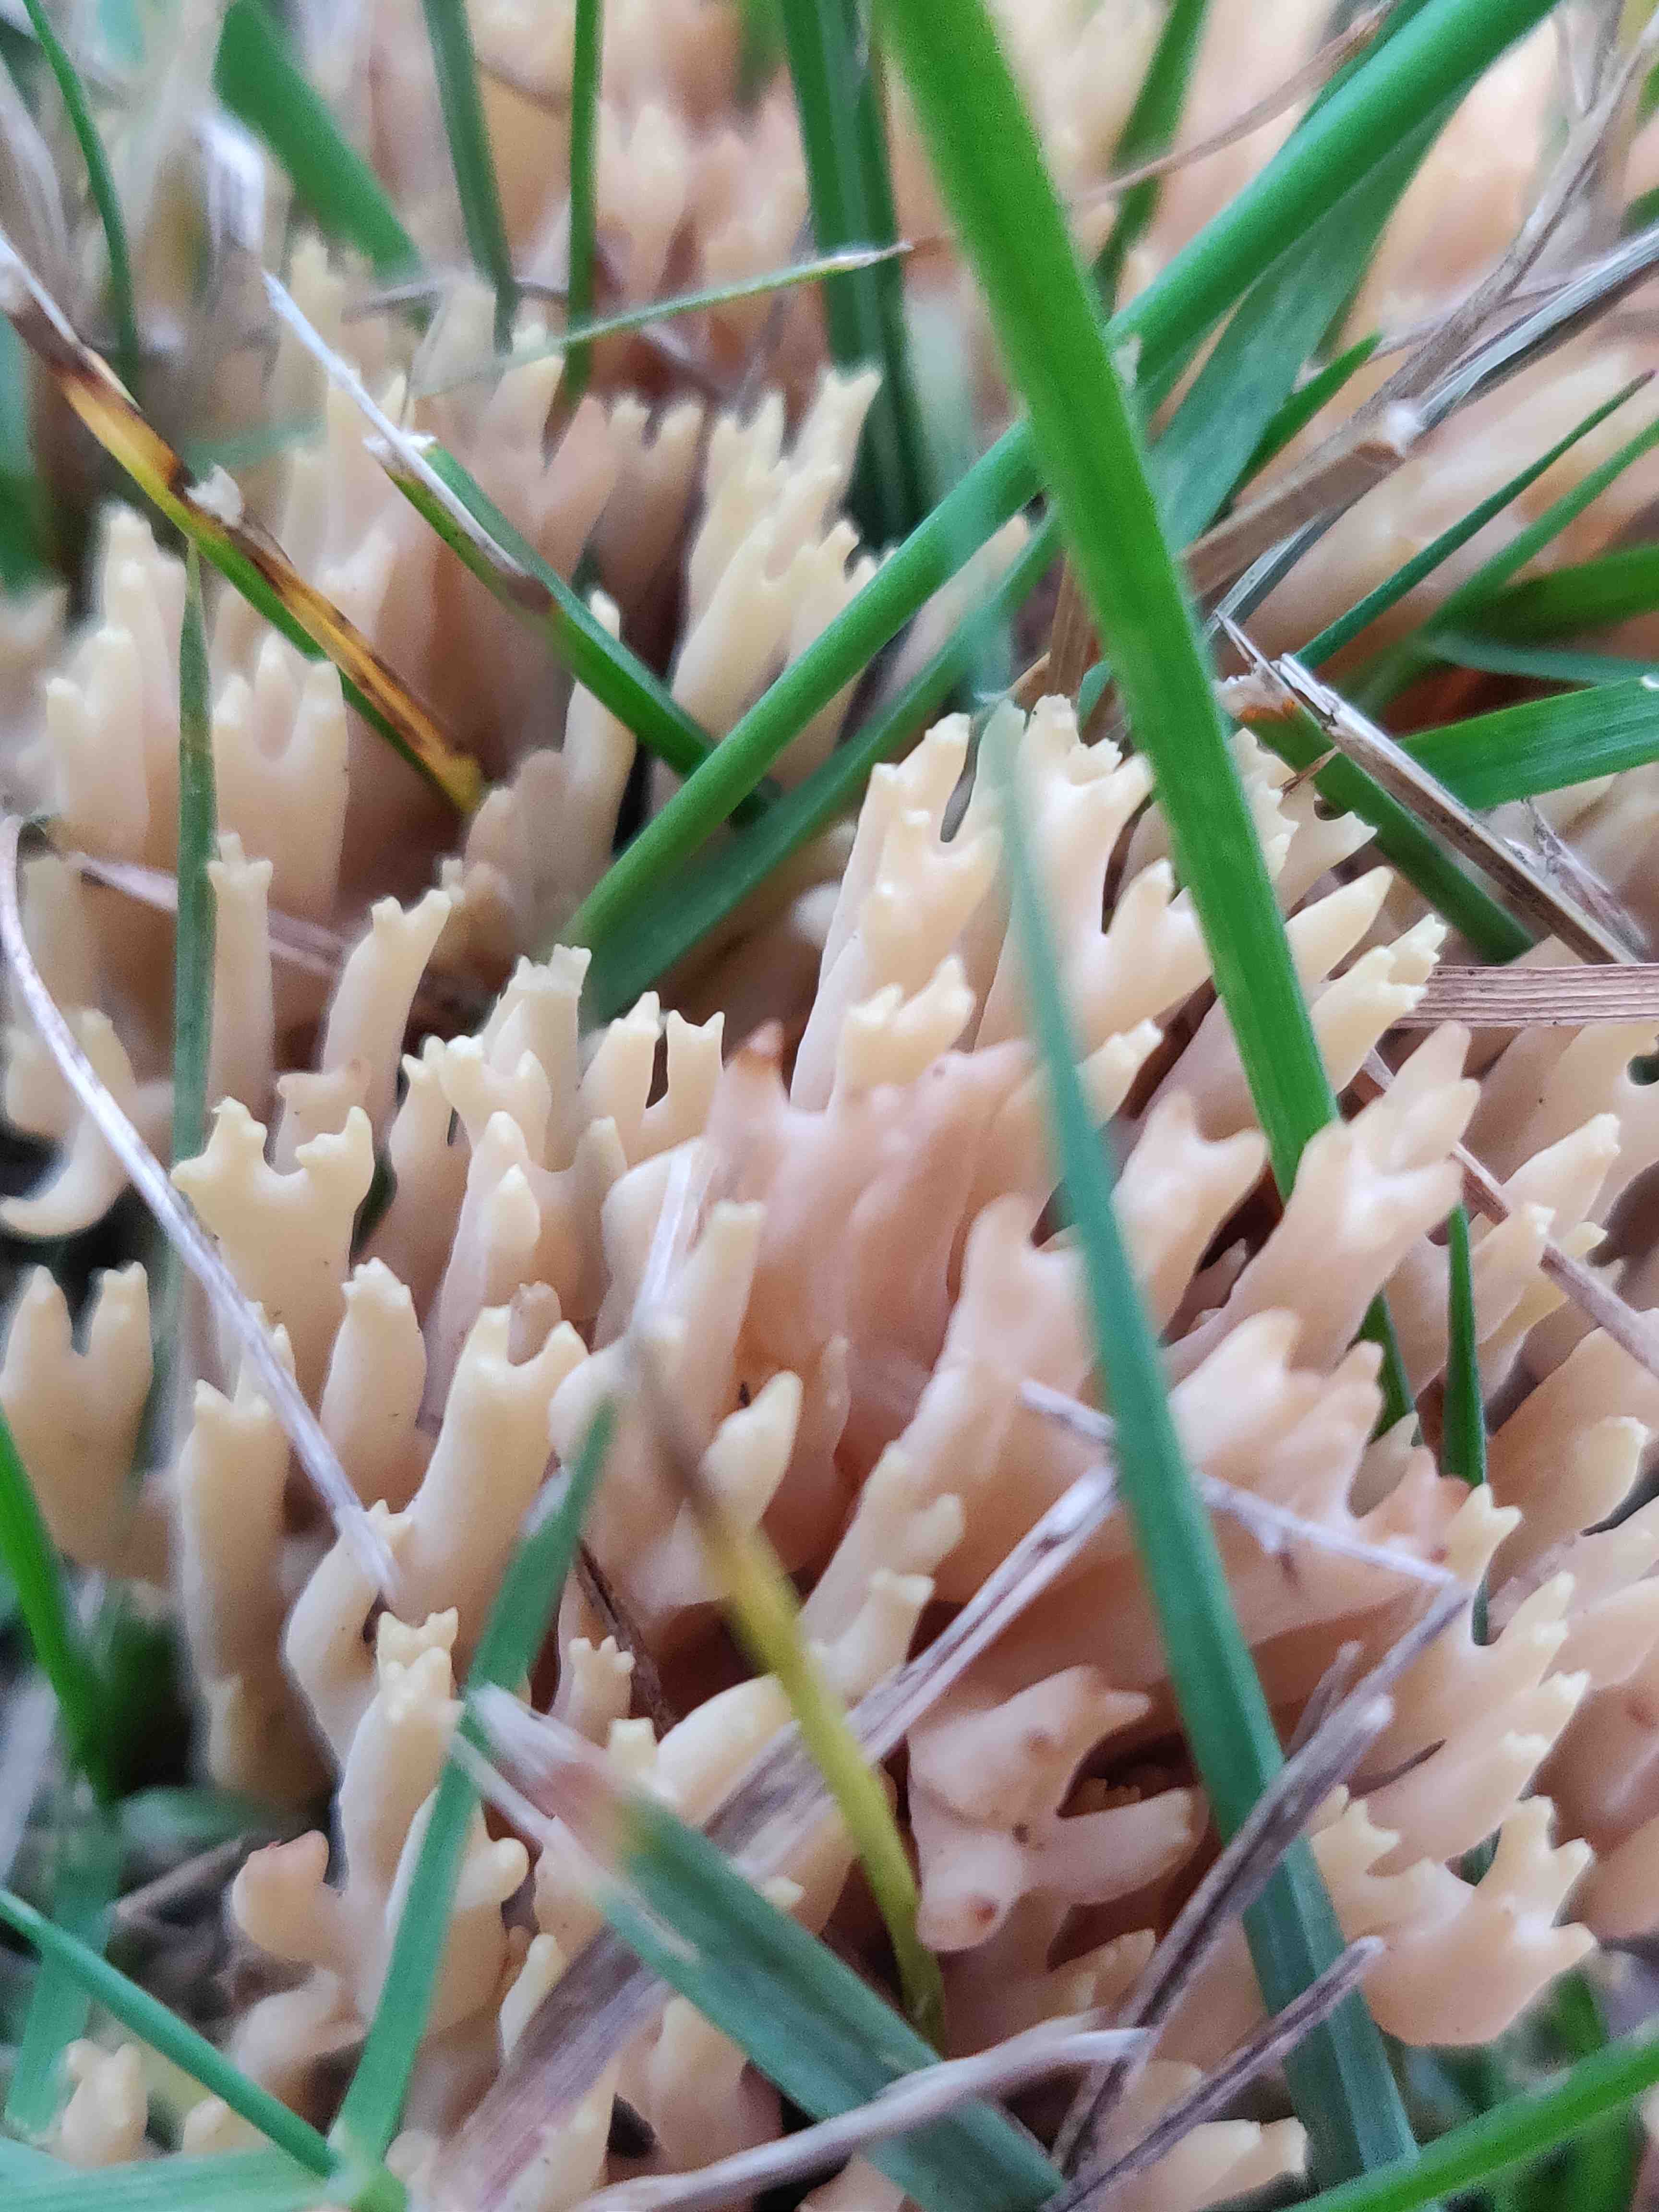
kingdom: Fungi
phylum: Basidiomycota
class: Agaricomycetes
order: Gomphales
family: Gomphaceae
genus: Ramaria
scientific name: Ramaria stricta
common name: rank koralsvamp
